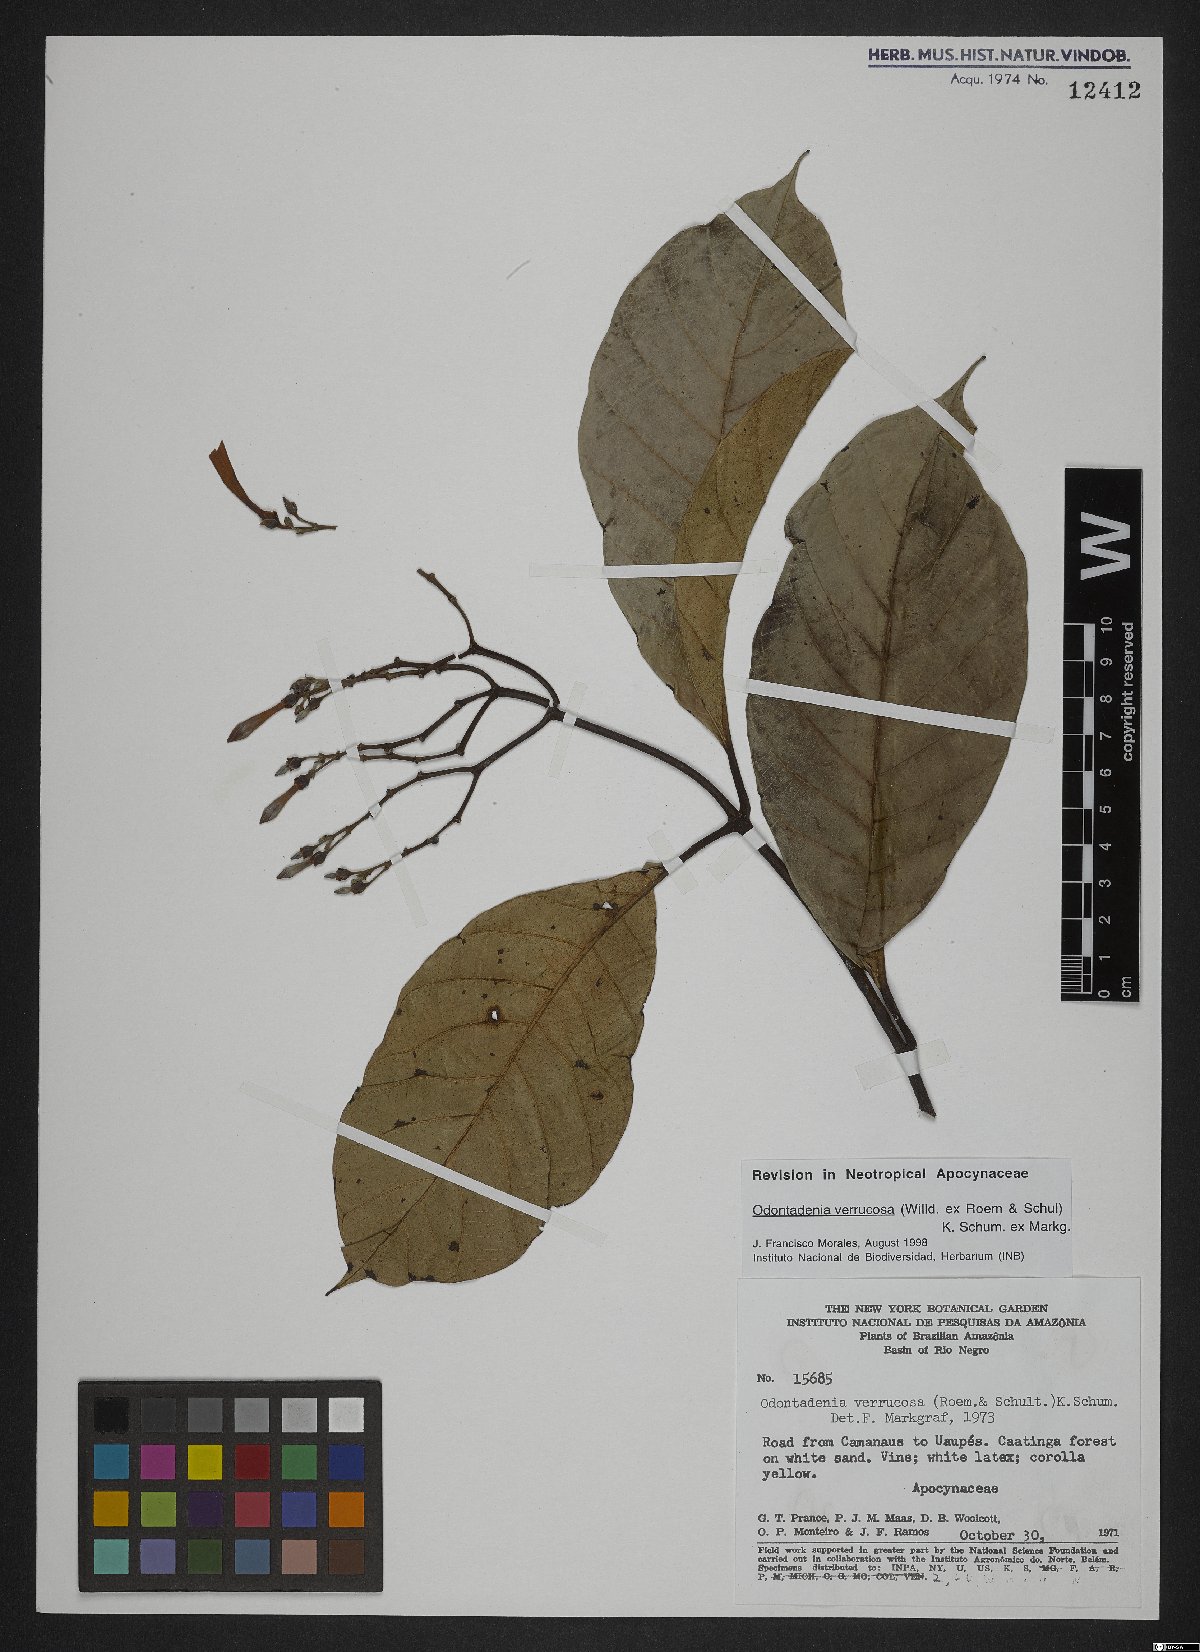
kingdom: Plantae
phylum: Tracheophyta
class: Magnoliopsida
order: Gentianales
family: Apocynaceae
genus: Odontadenia
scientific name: Odontadenia verrucosa
